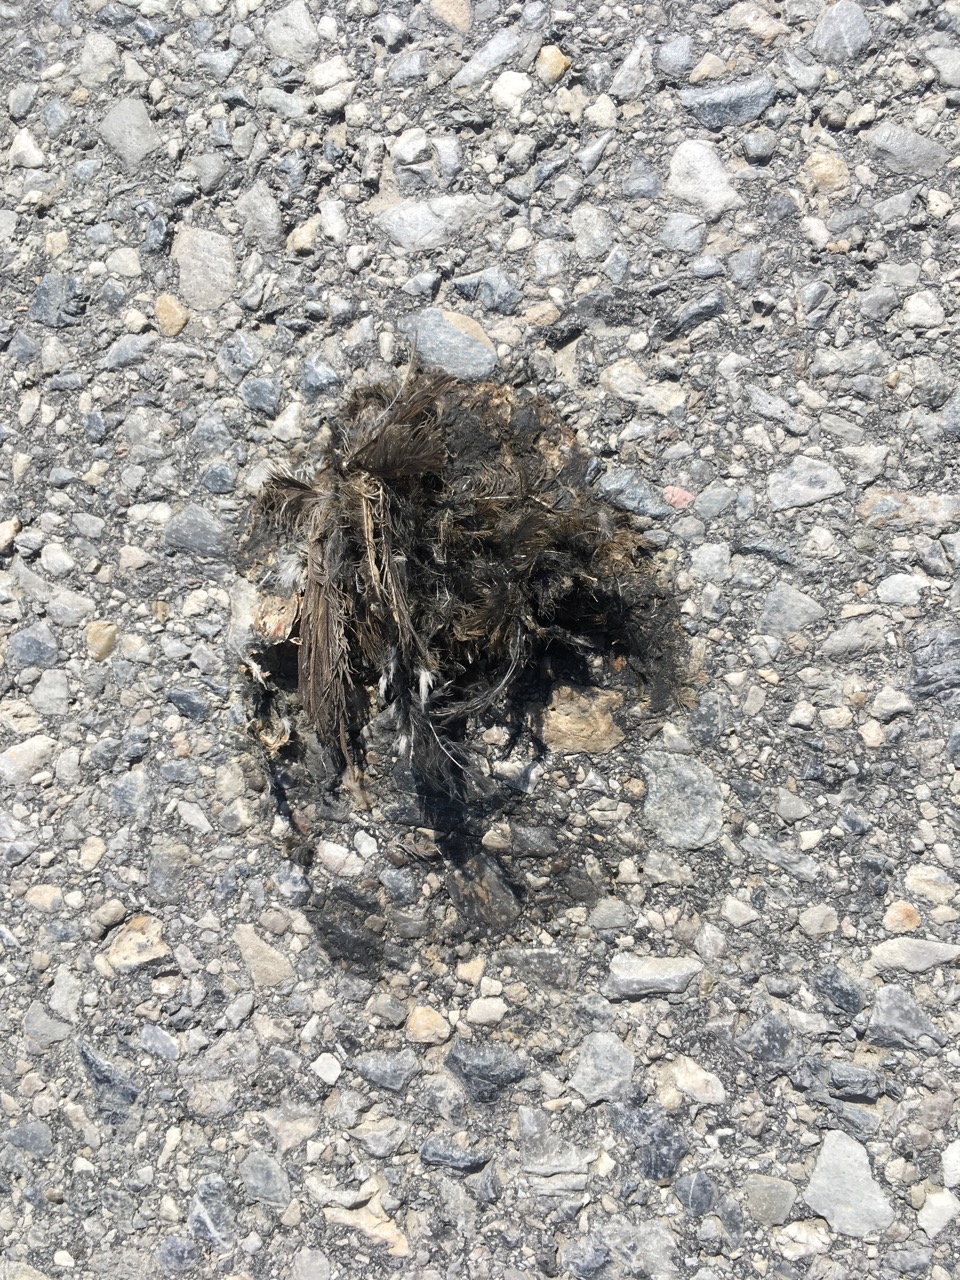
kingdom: Animalia
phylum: Chordata
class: Aves
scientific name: Aves
